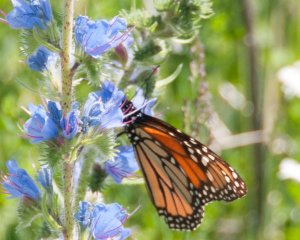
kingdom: Animalia
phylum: Arthropoda
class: Insecta
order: Lepidoptera
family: Nymphalidae
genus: Danaus
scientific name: Danaus plexippus
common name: Monarch
